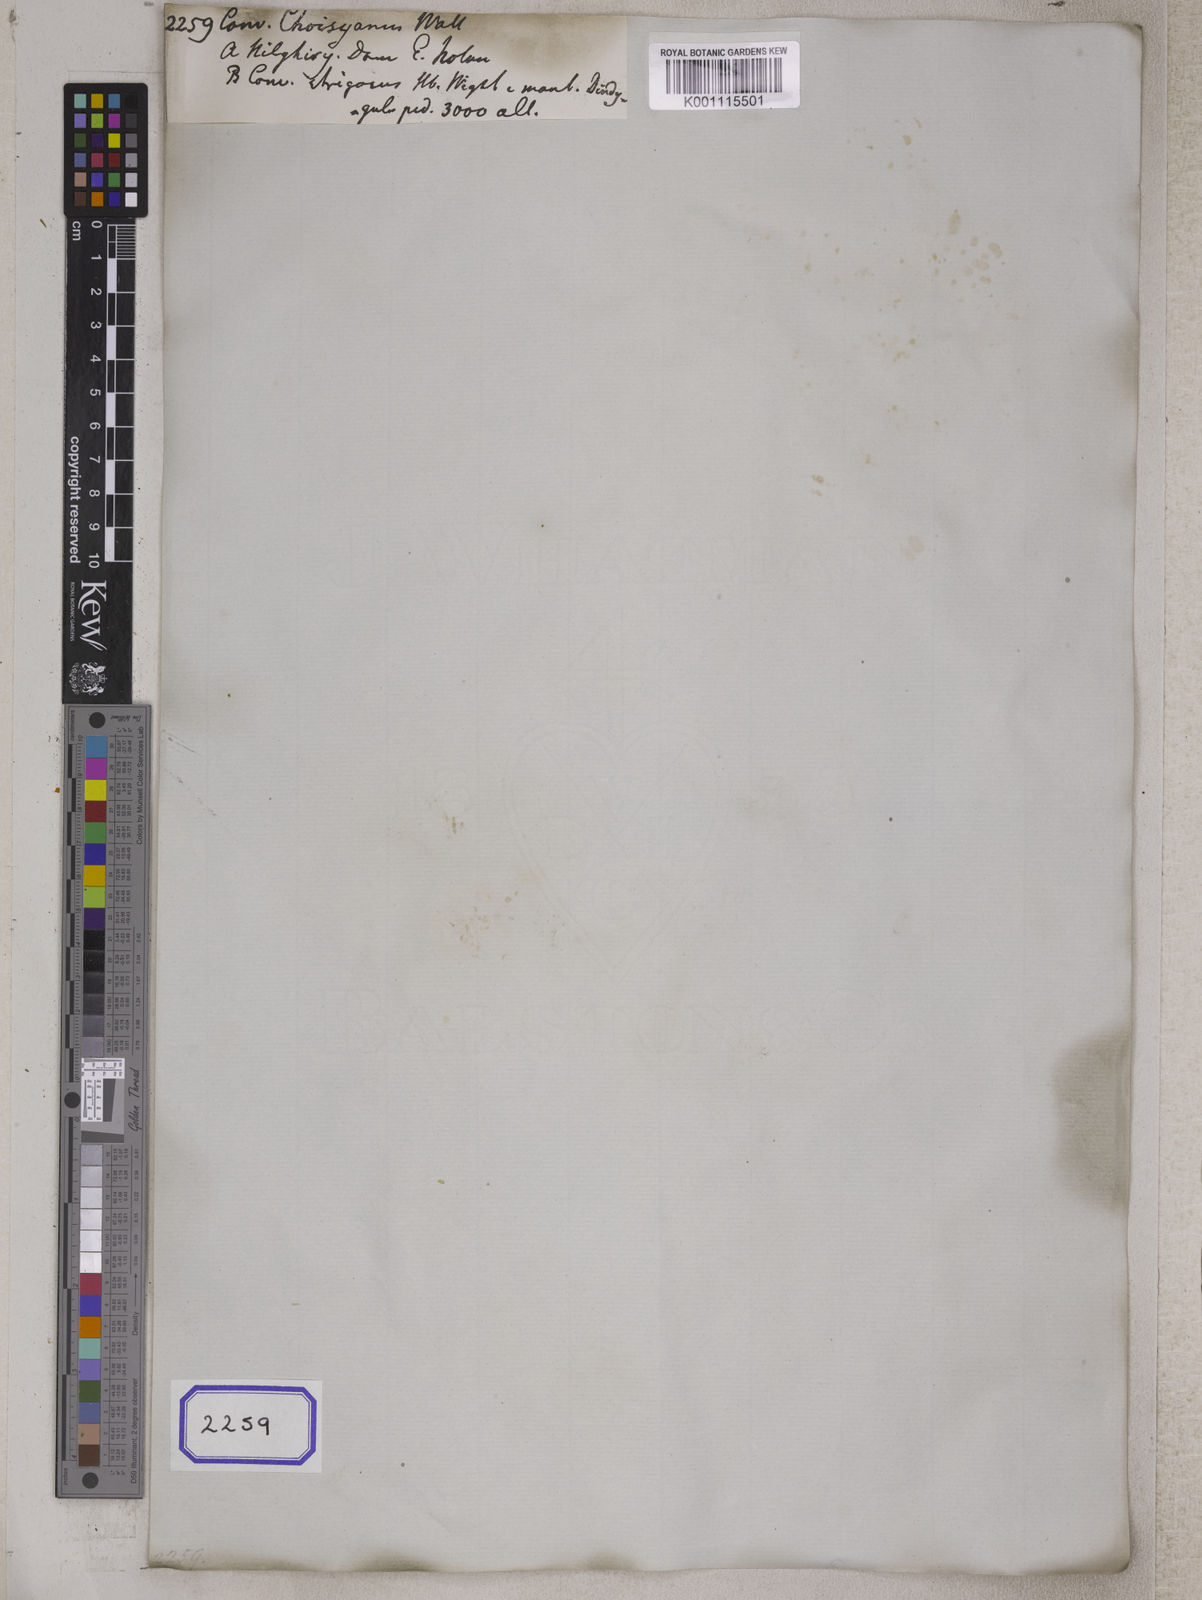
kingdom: Plantae
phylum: Tracheophyta
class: Magnoliopsida
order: Solanales
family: Convolvulaceae
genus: Argyreia
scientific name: Argyreia leschenaultii
